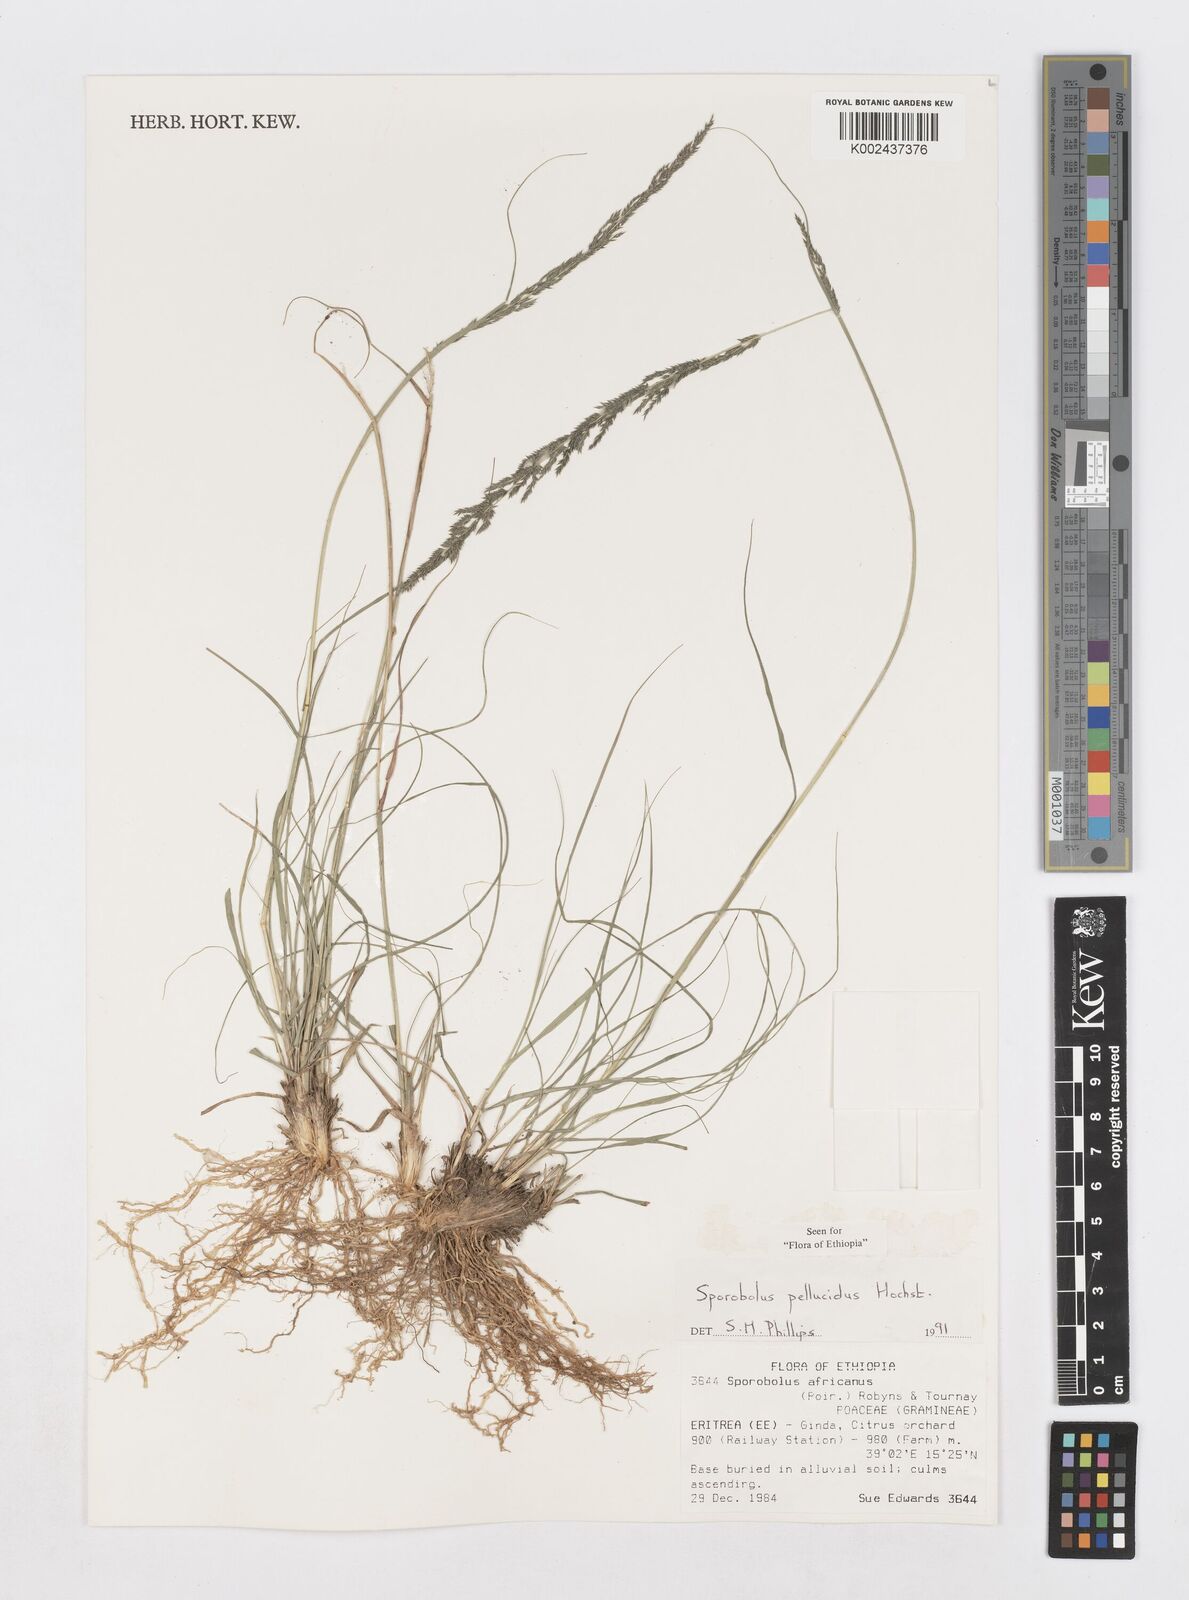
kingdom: Plantae
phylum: Tracheophyta
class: Liliopsida
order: Poales
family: Poaceae
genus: Sporobolus
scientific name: Sporobolus pellucidus
